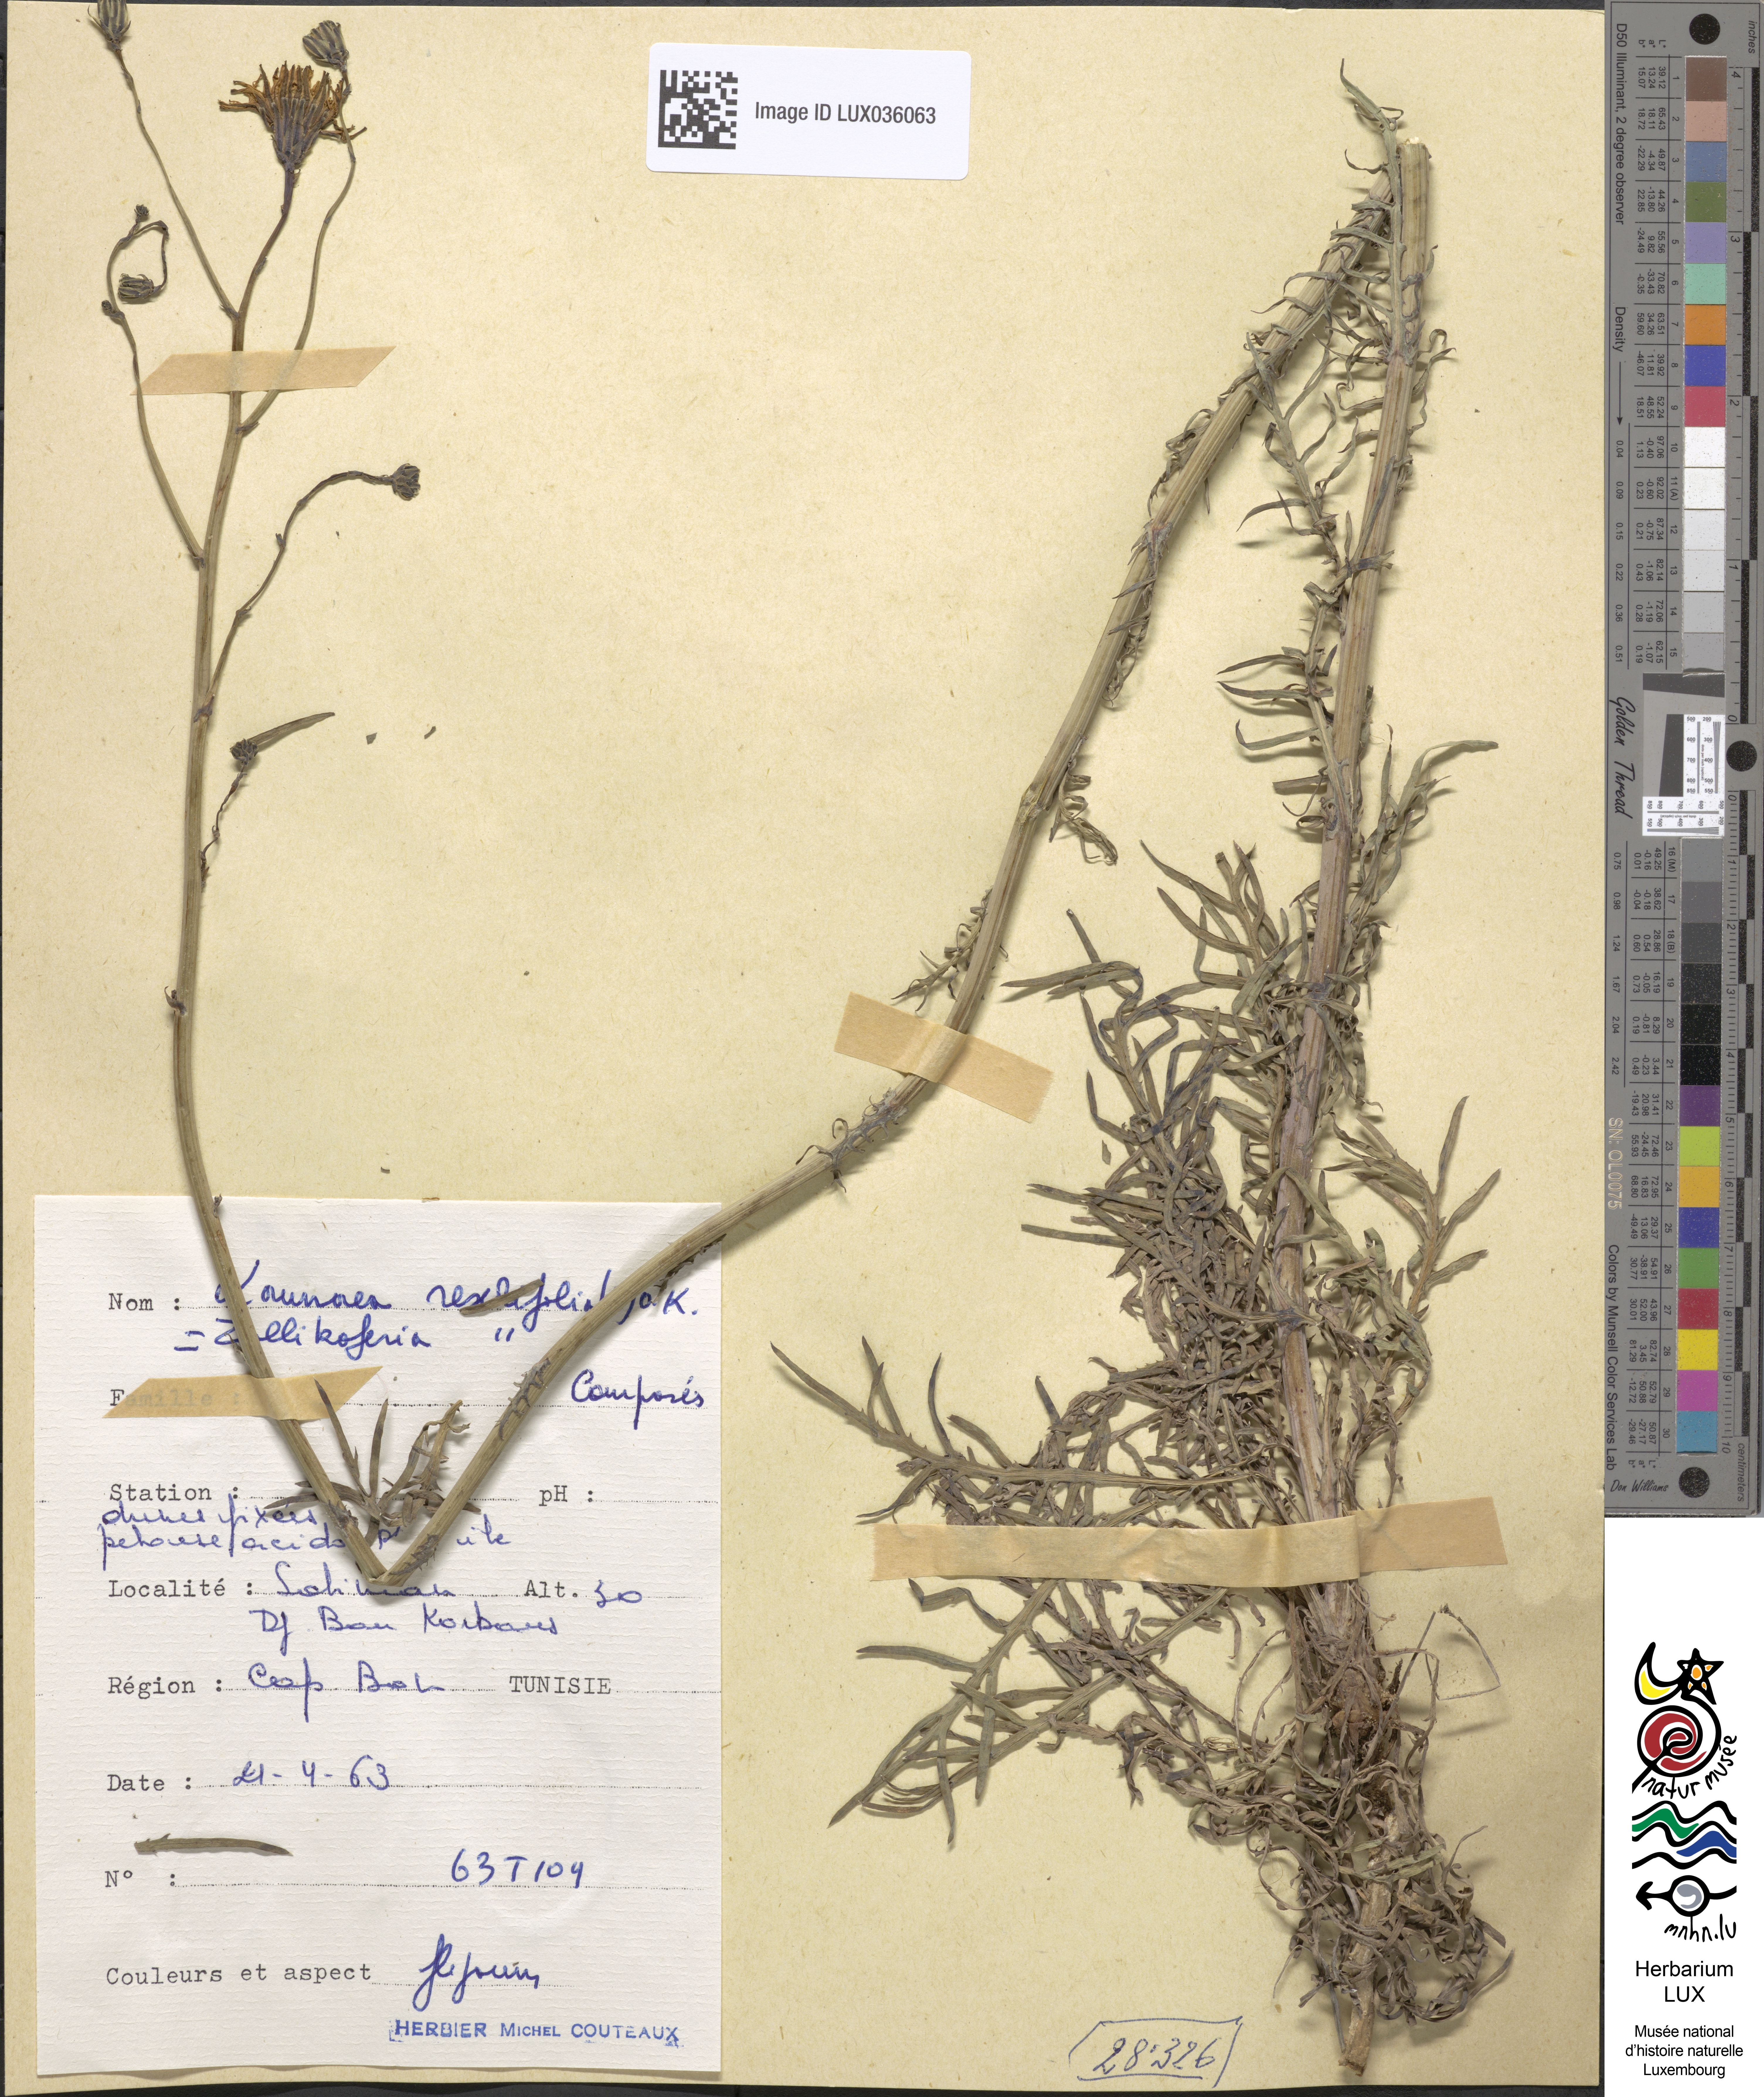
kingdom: Plantae
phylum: Tracheophyta
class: Magnoliopsida
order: Asterales
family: Asteraceae
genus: Launaea
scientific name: Launaea fragilis
